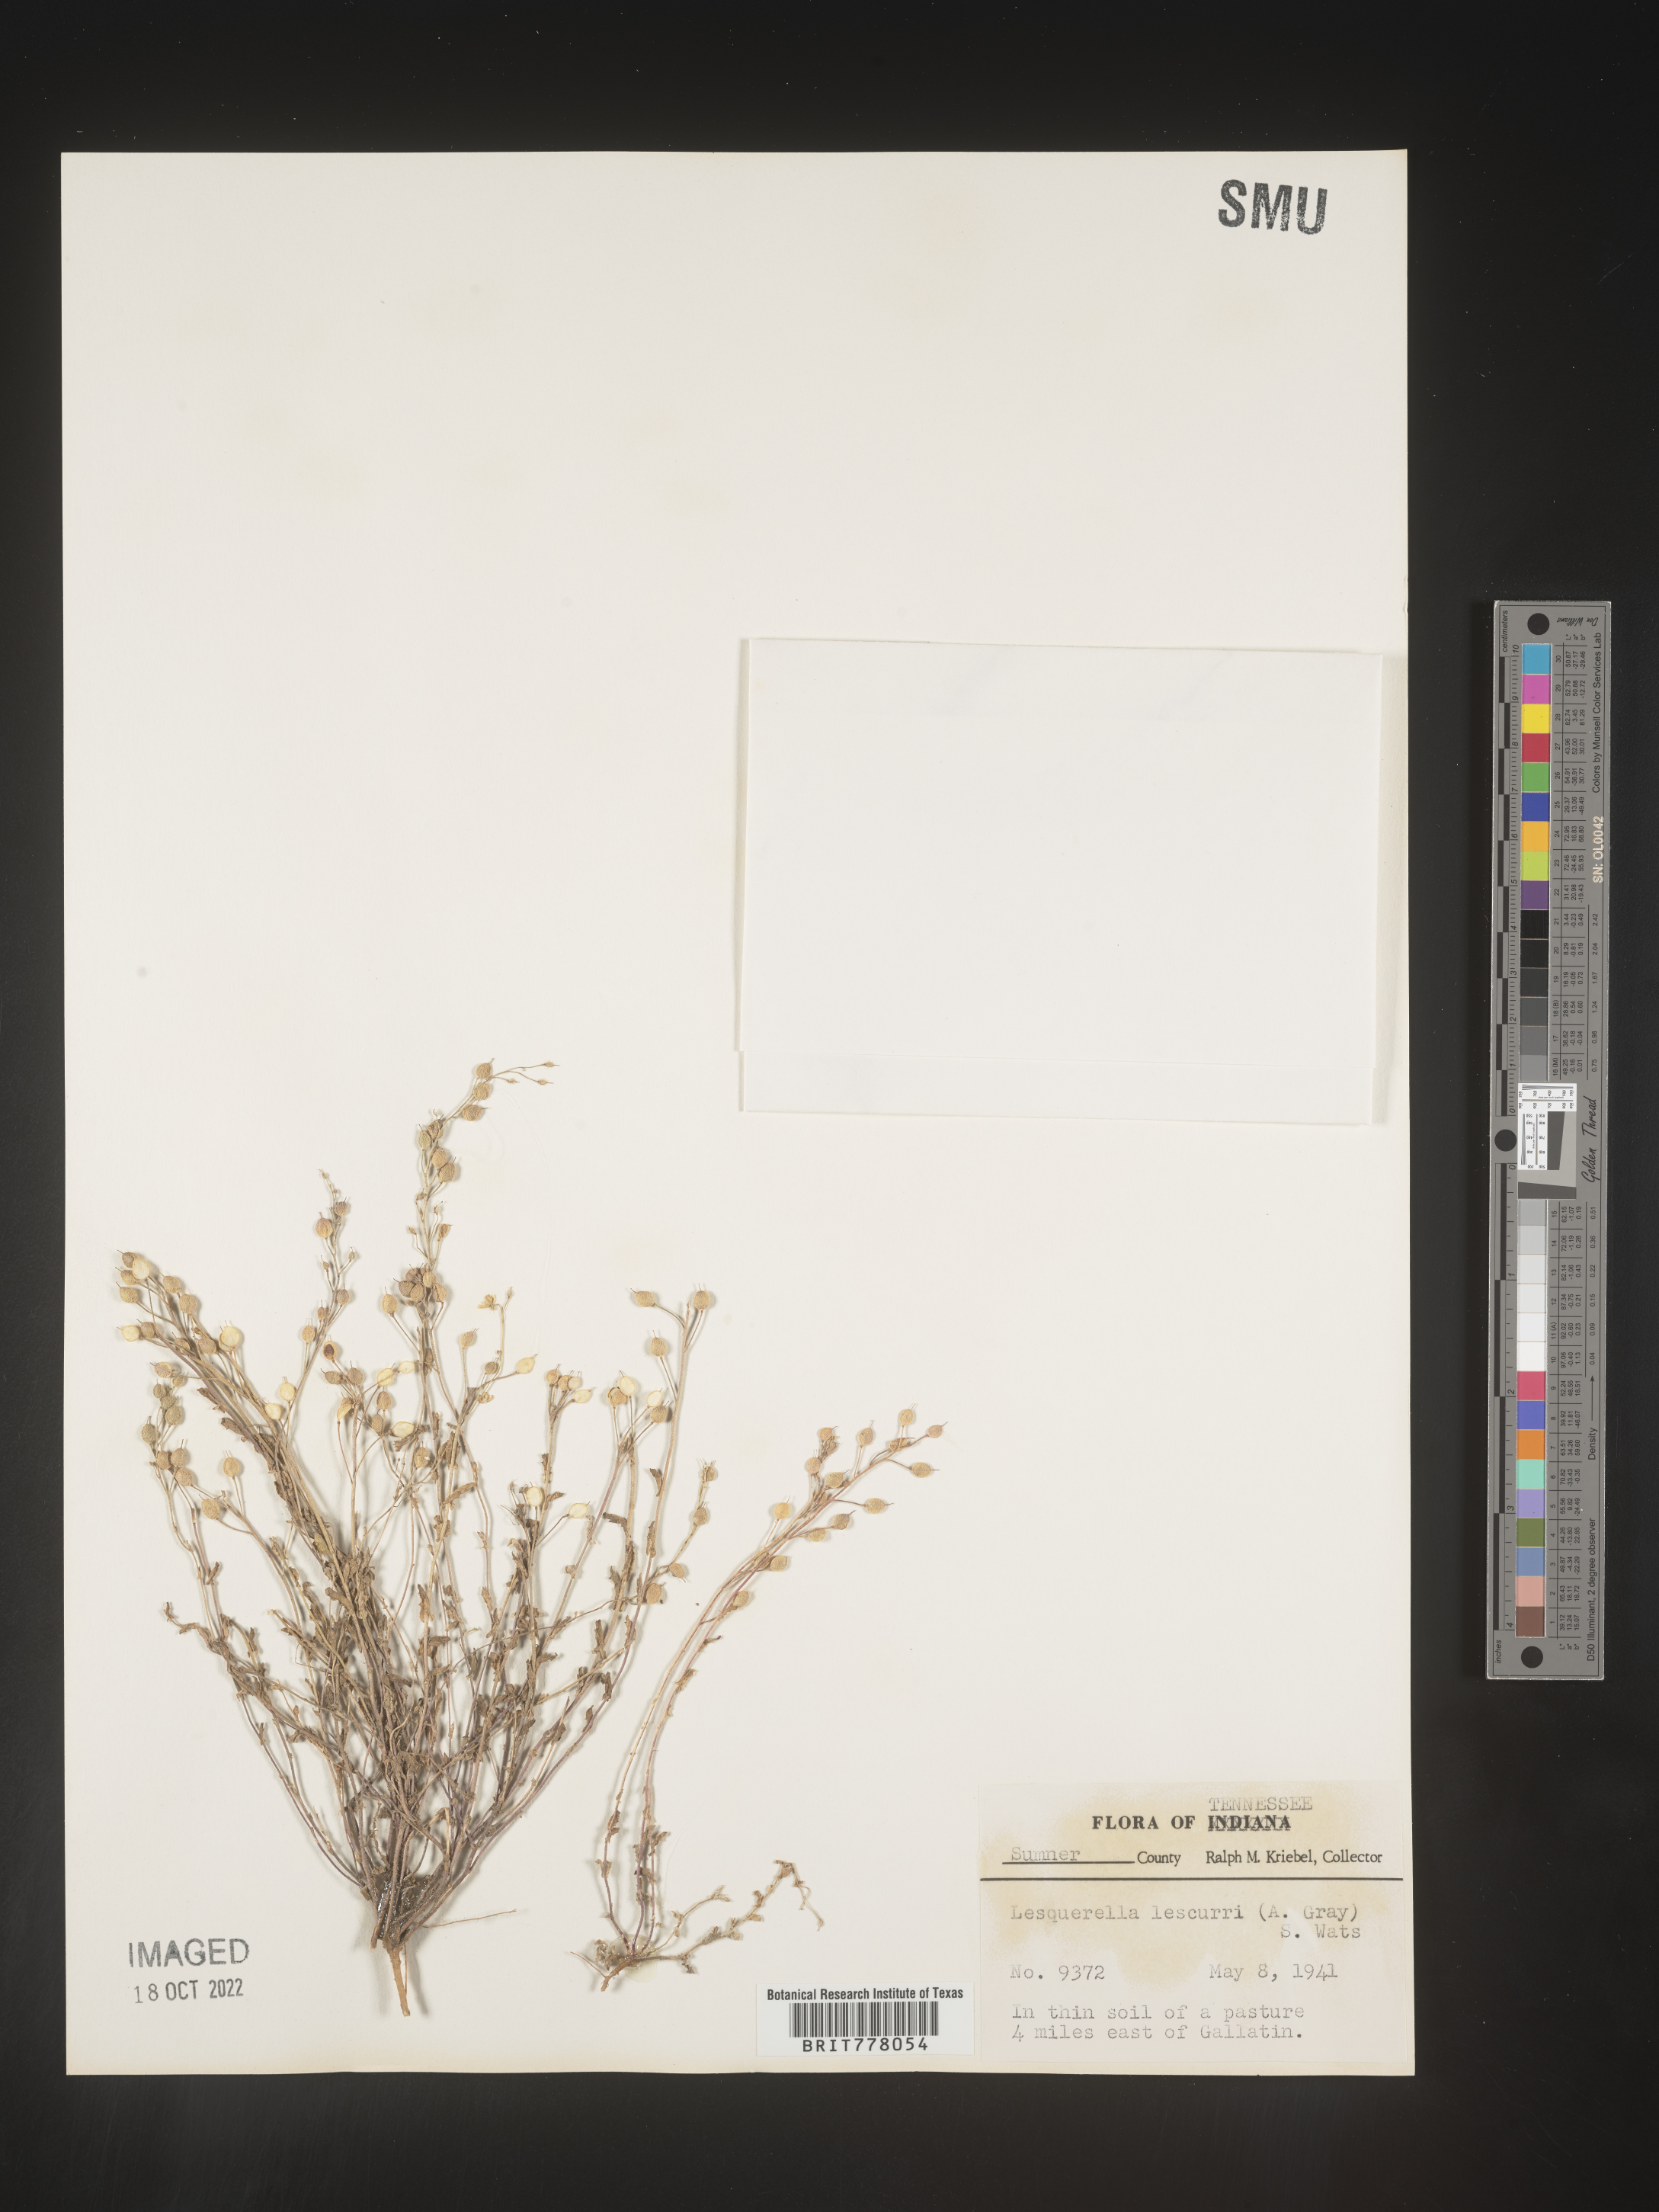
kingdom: Chromista
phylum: Cercozoa
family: Psammonobiotidae
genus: Lesquerella
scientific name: Lesquerella
